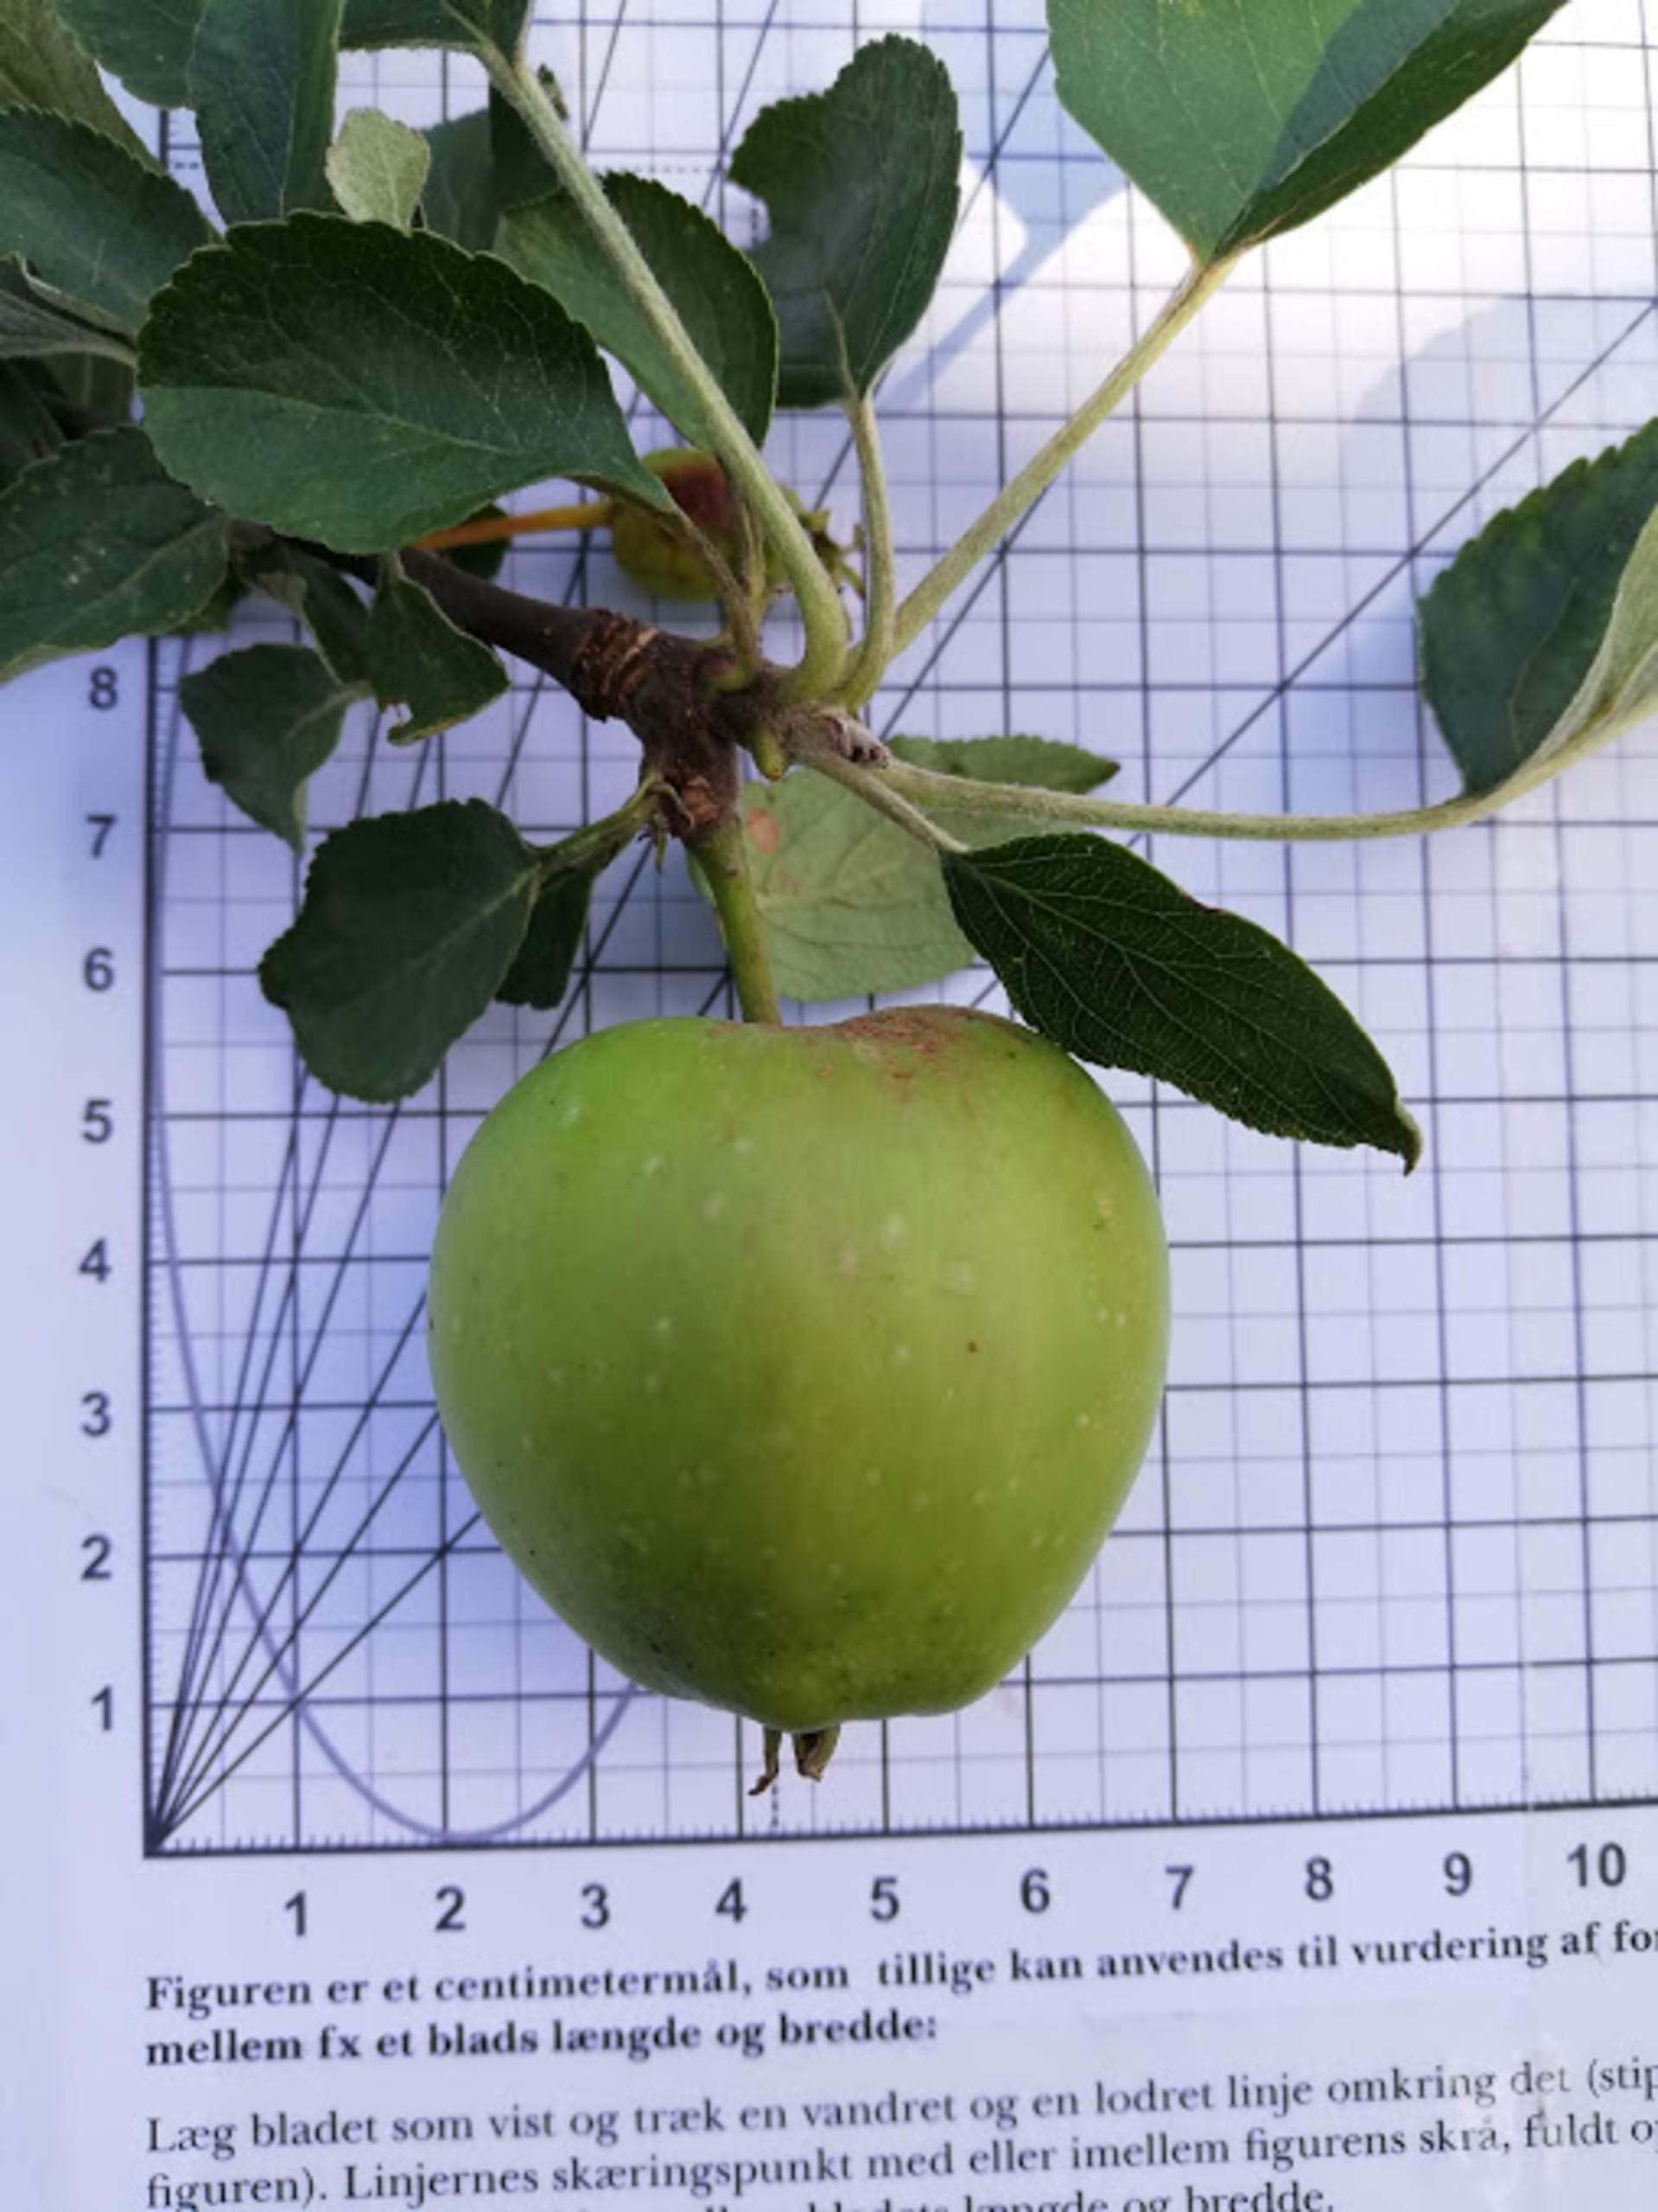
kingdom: Plantae
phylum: Tracheophyta
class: Magnoliopsida
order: Rosales
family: Rosaceae
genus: Malus
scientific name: Malus domestica
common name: Sød-æble
